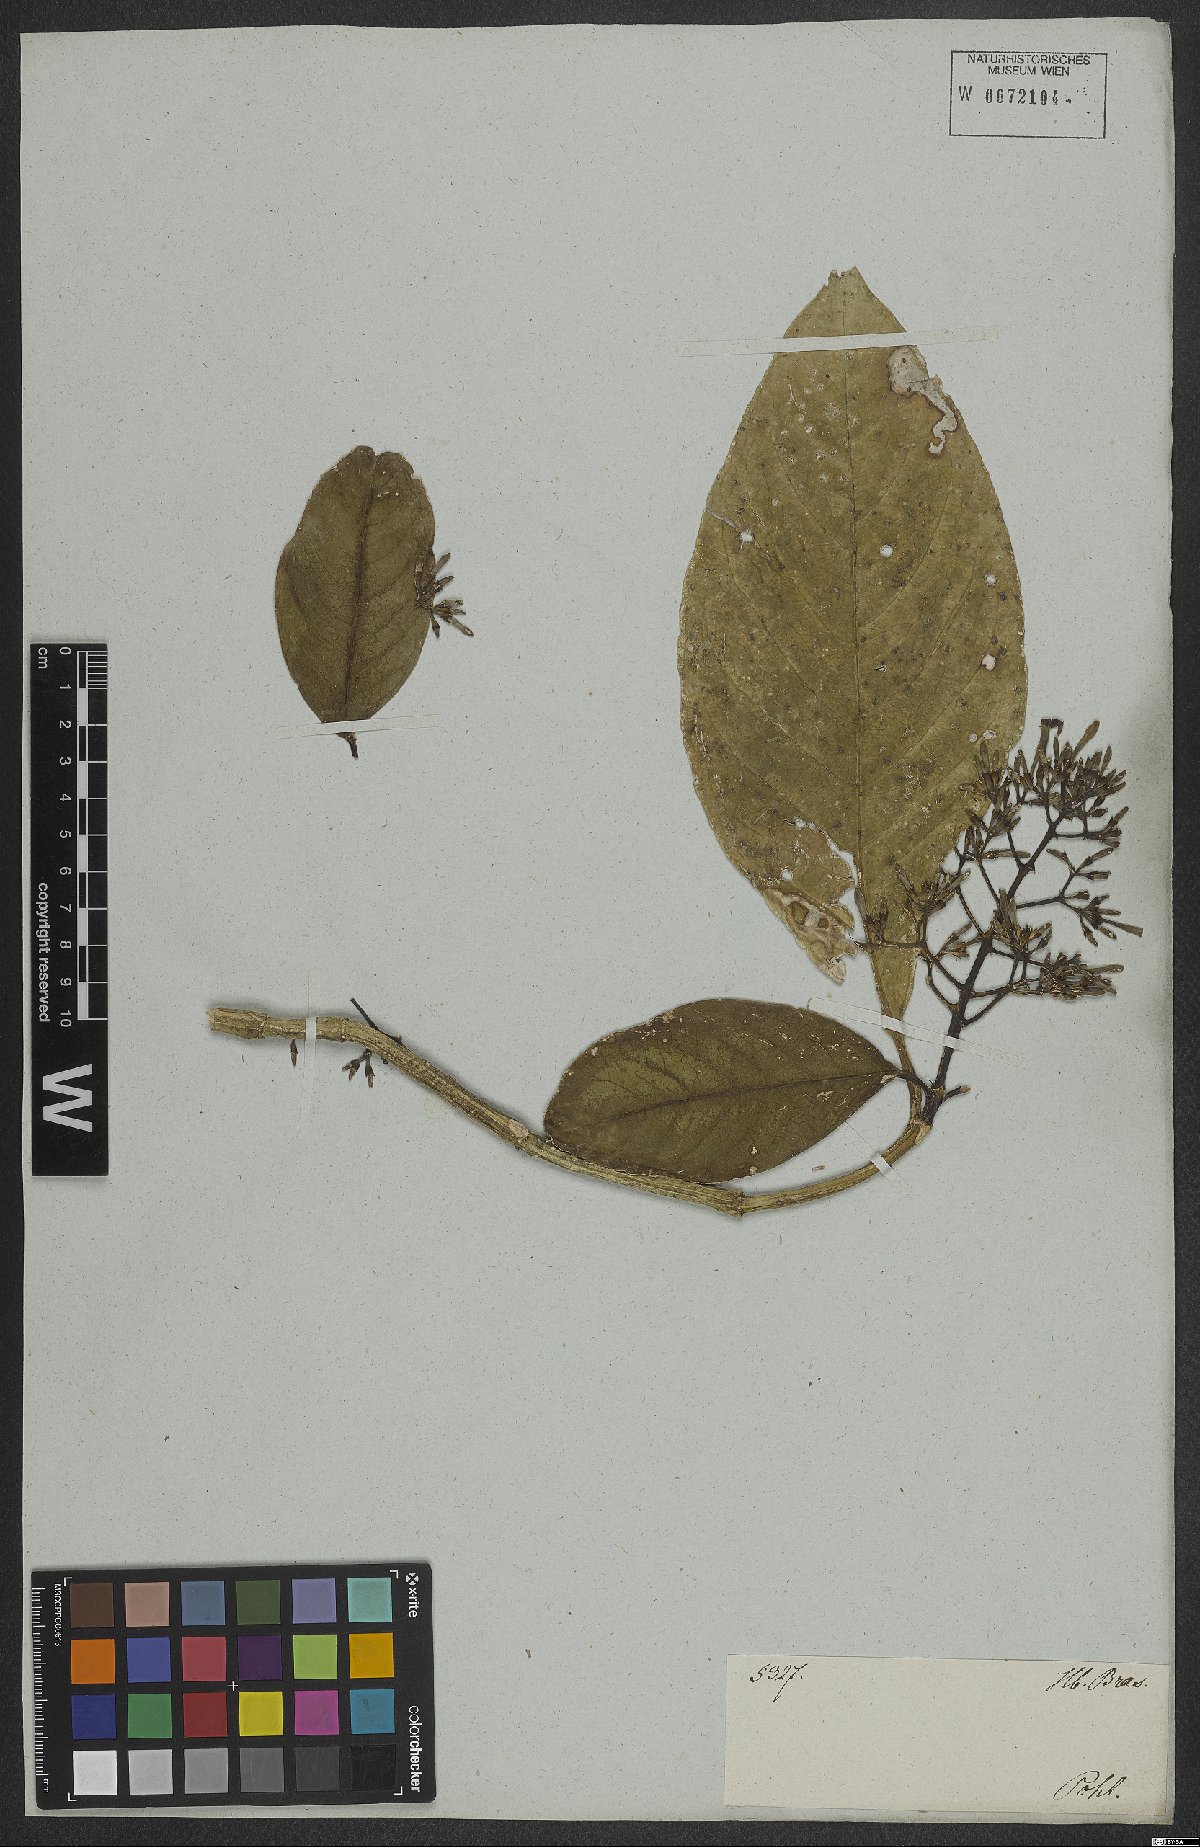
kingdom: Plantae
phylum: Tracheophyta
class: Magnoliopsida
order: Gentianales
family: Rubiaceae
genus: Coussarea
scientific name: Coussarea nemoralis
